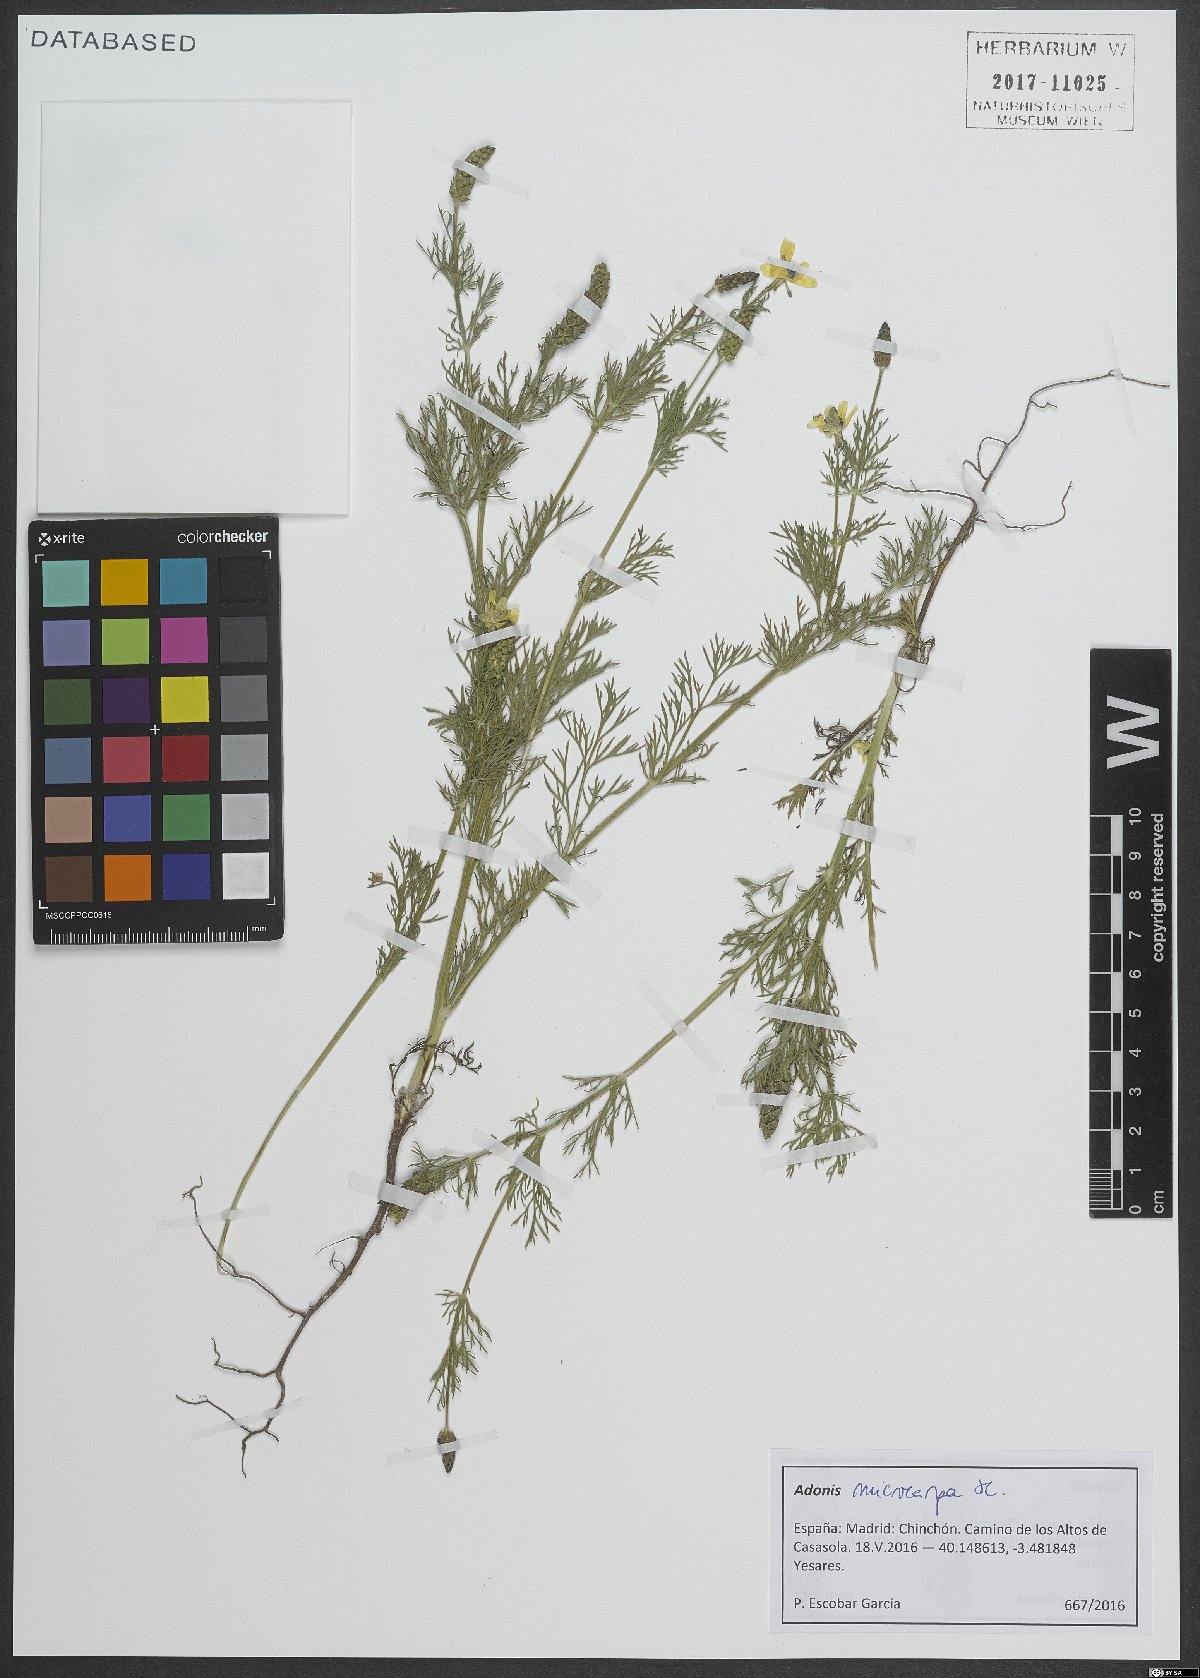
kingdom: Plantae
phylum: Tracheophyta
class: Magnoliopsida
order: Ranunculales
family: Ranunculaceae
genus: Adonis
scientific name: Adonis microcarpa
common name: Pheasant's-eye
